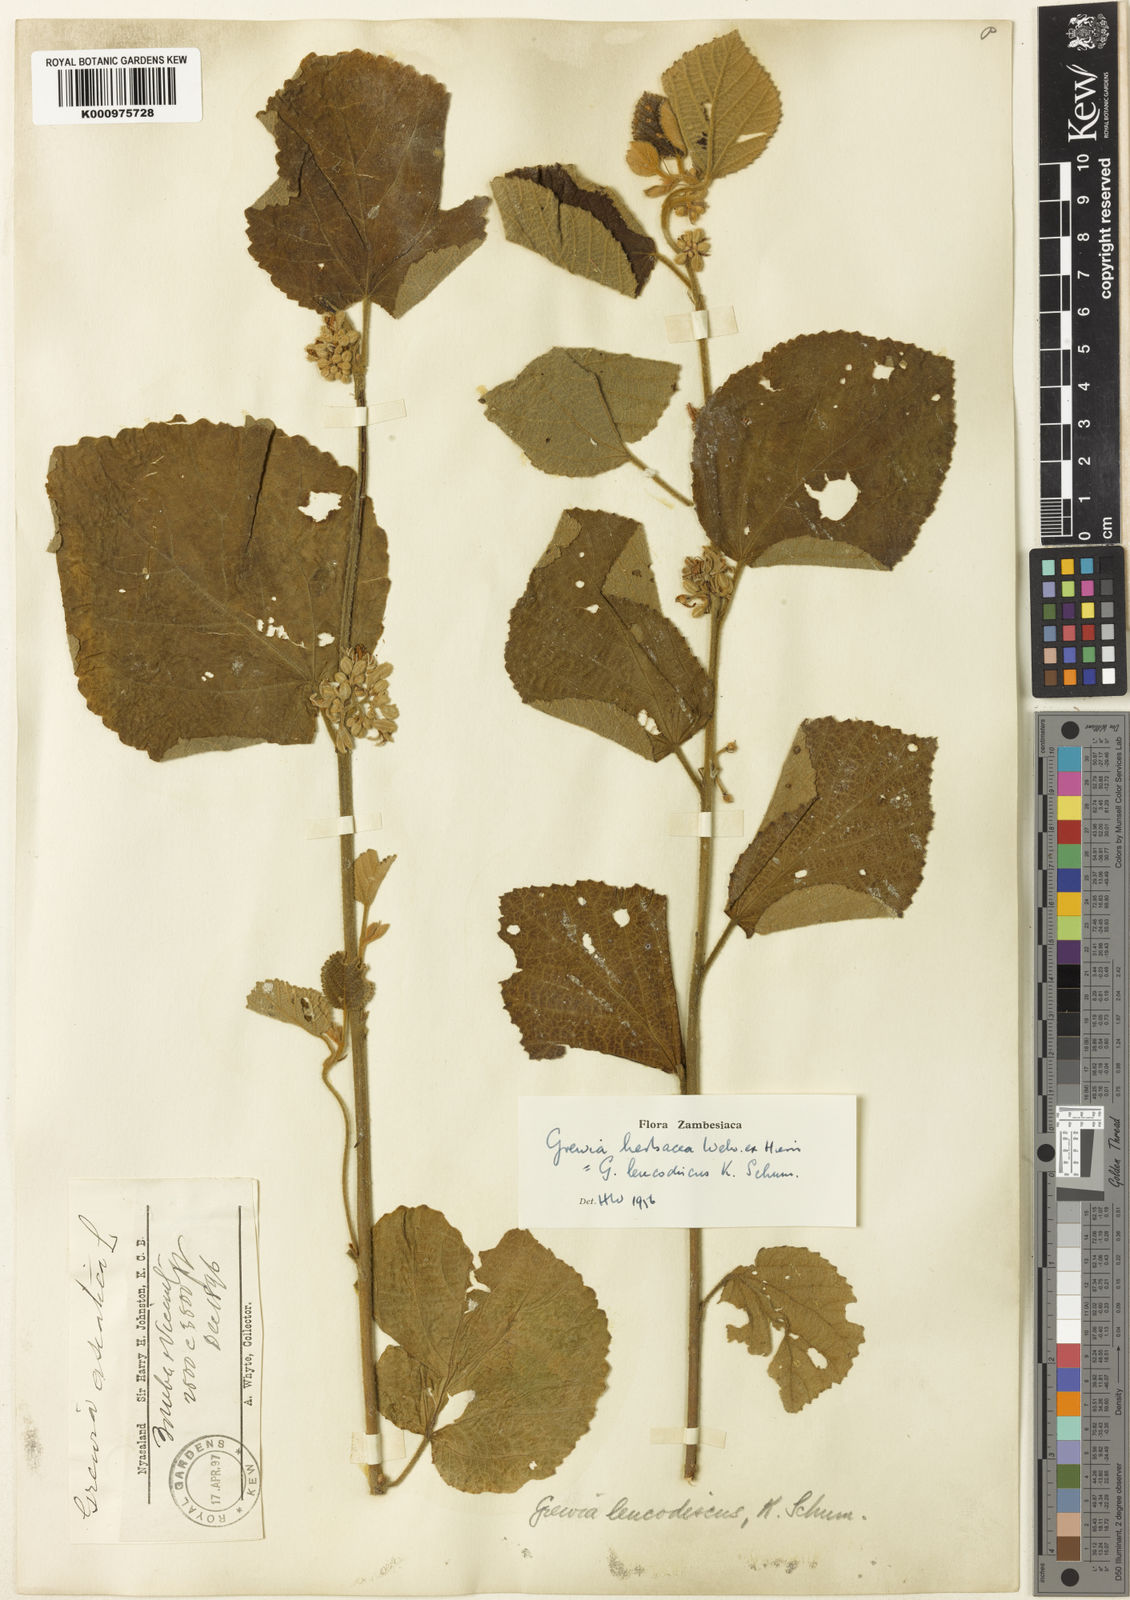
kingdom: Plantae
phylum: Tracheophyta
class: Magnoliopsida
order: Malvales
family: Malvaceae
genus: Grewia
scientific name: Grewia herbacea
